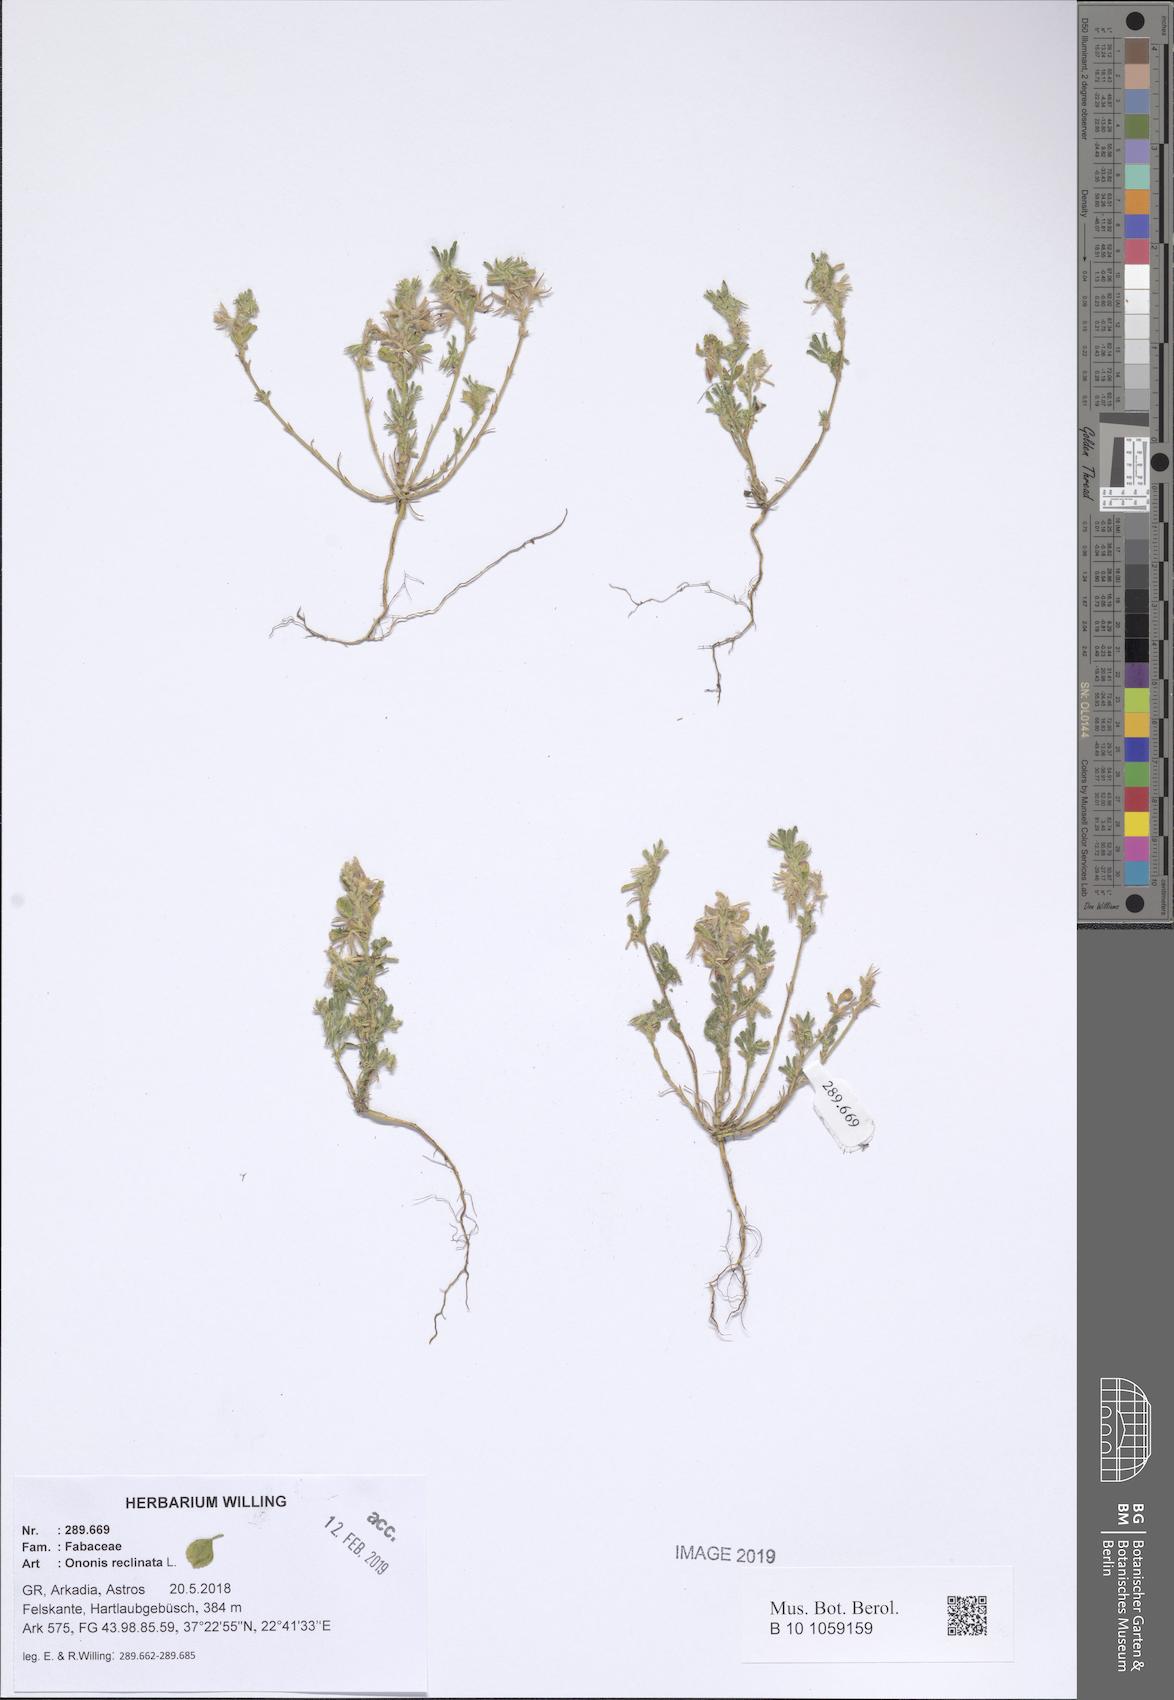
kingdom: Plantae
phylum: Tracheophyta
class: Magnoliopsida
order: Fabales
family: Fabaceae
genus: Ononis
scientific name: Ononis reclinata
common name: Small restharrow
